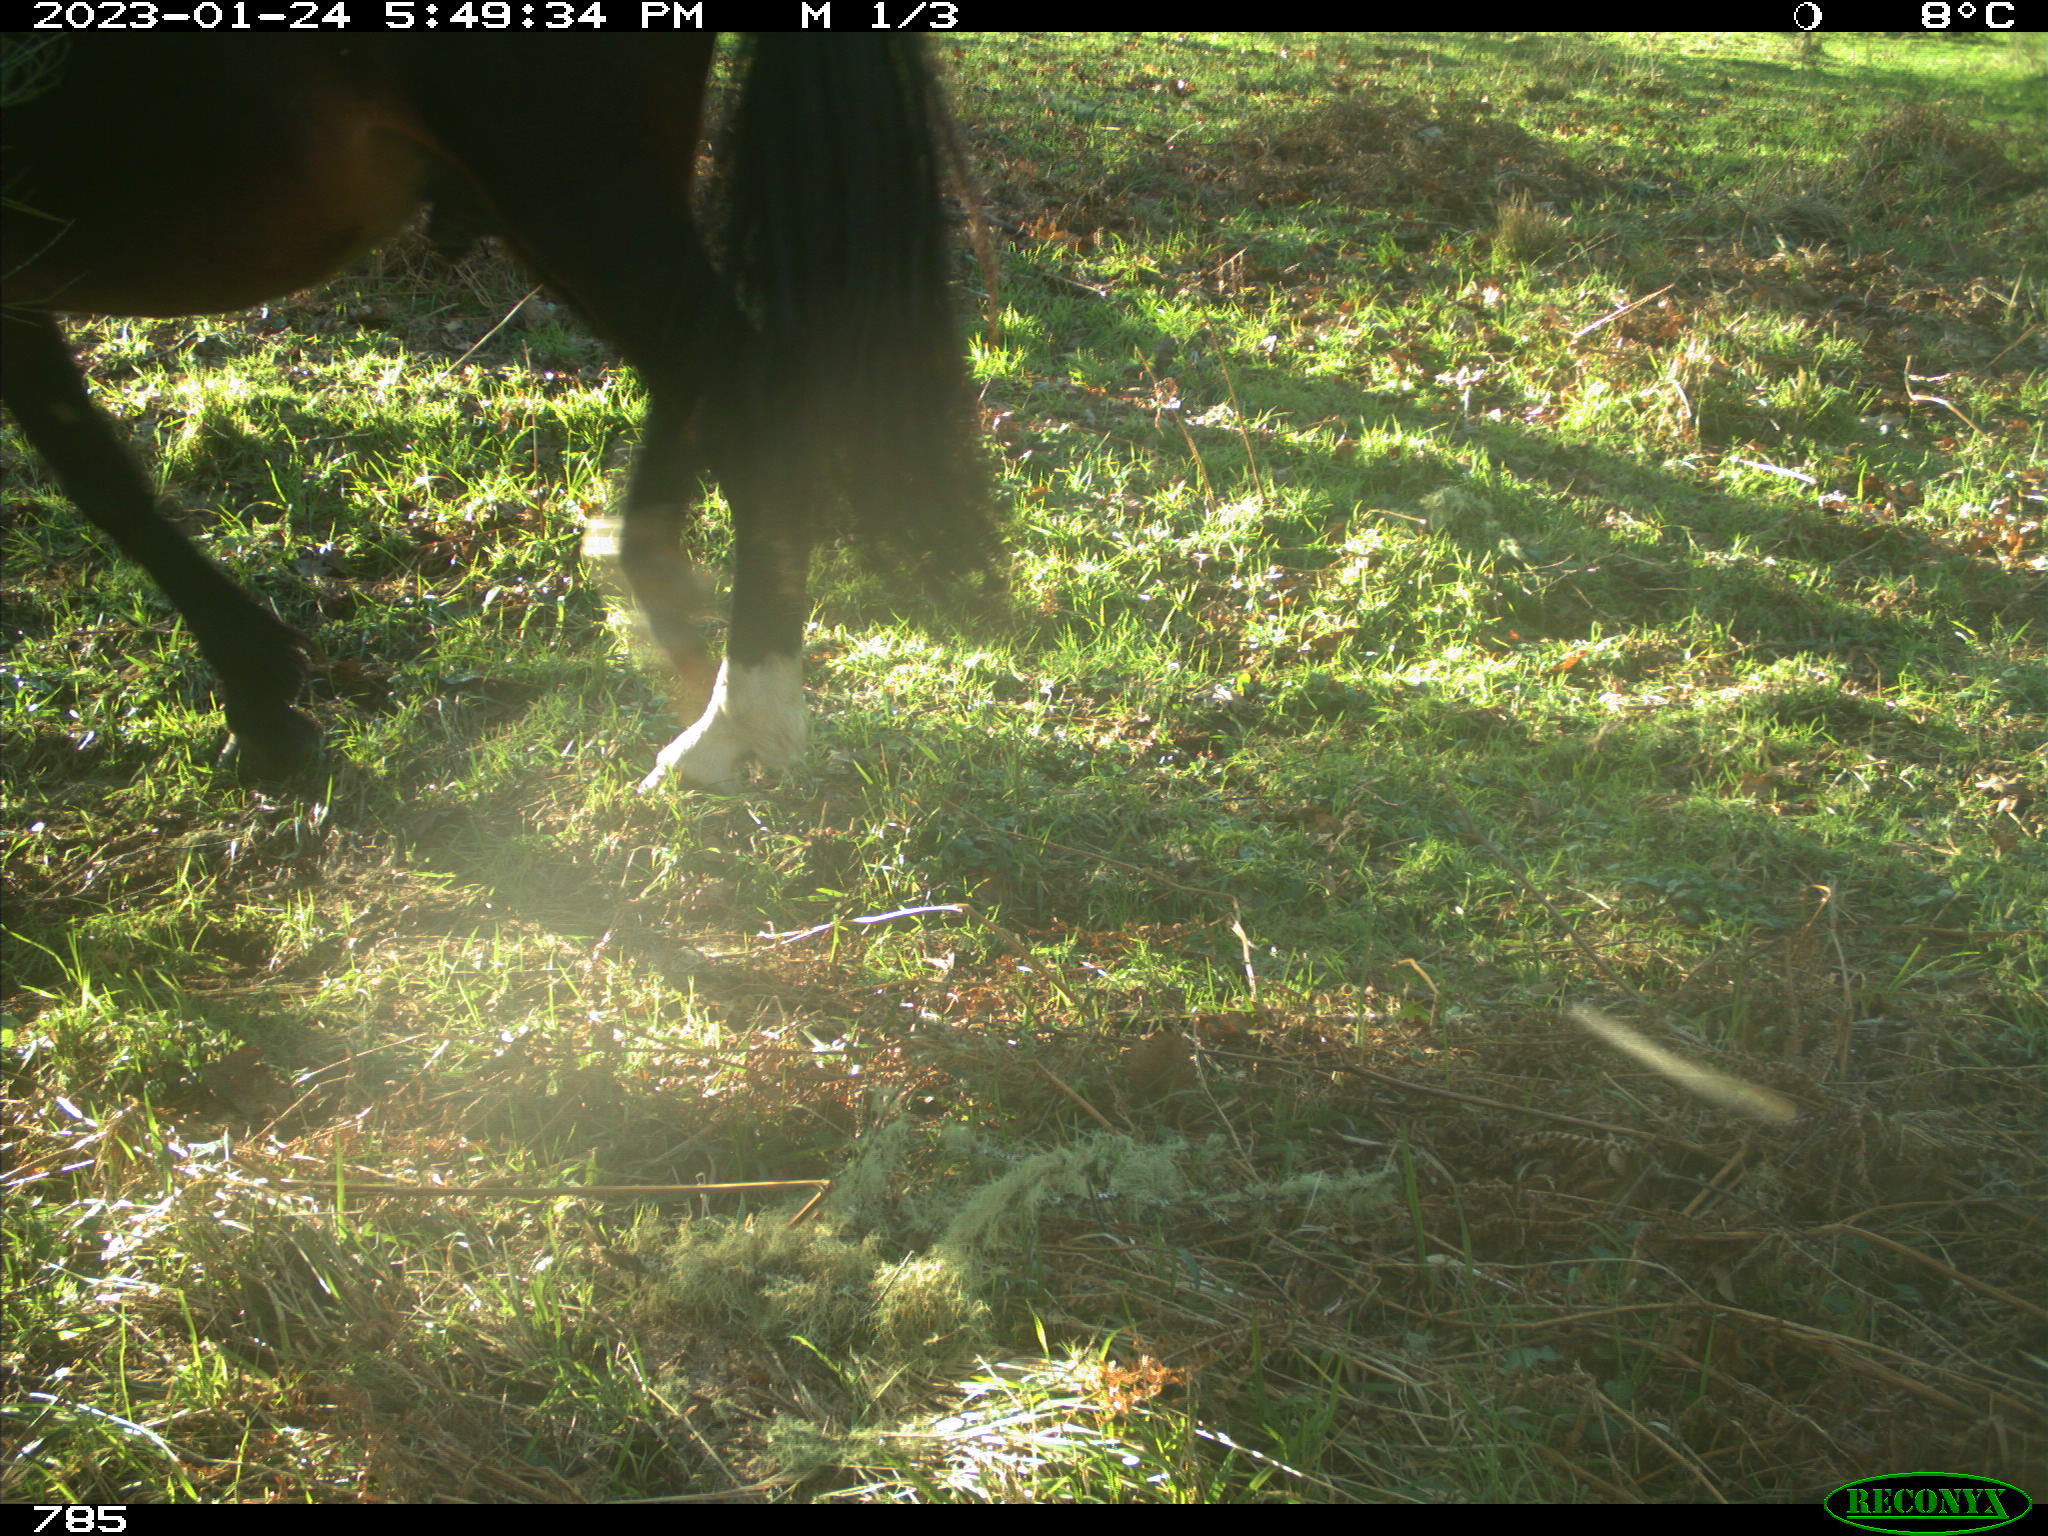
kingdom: Animalia
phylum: Chordata
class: Mammalia
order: Perissodactyla
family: Equidae
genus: Equus
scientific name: Equus caballus
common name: Horse
